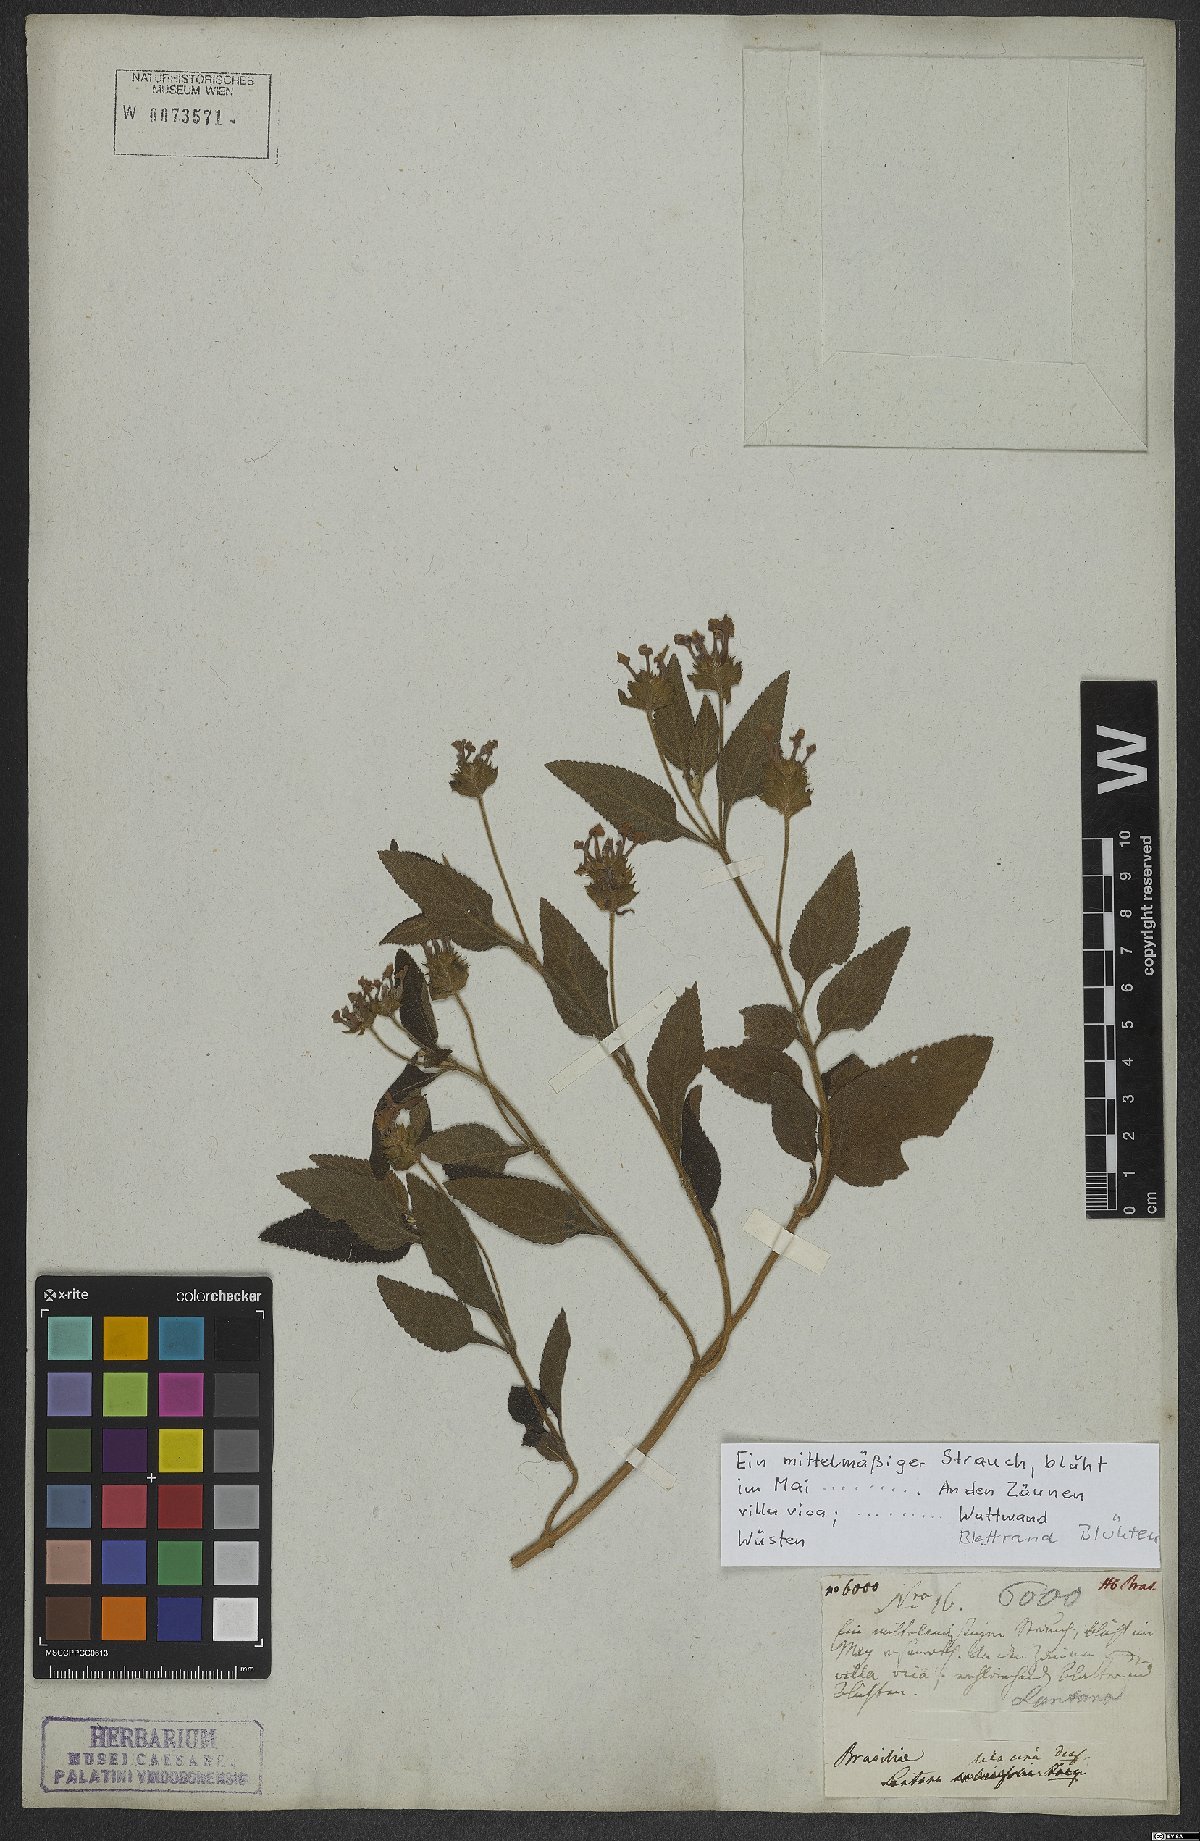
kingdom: Plantae
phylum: Tracheophyta
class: Magnoliopsida
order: Lamiales
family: Verbenaceae
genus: Lantana
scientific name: Lantana fucata
